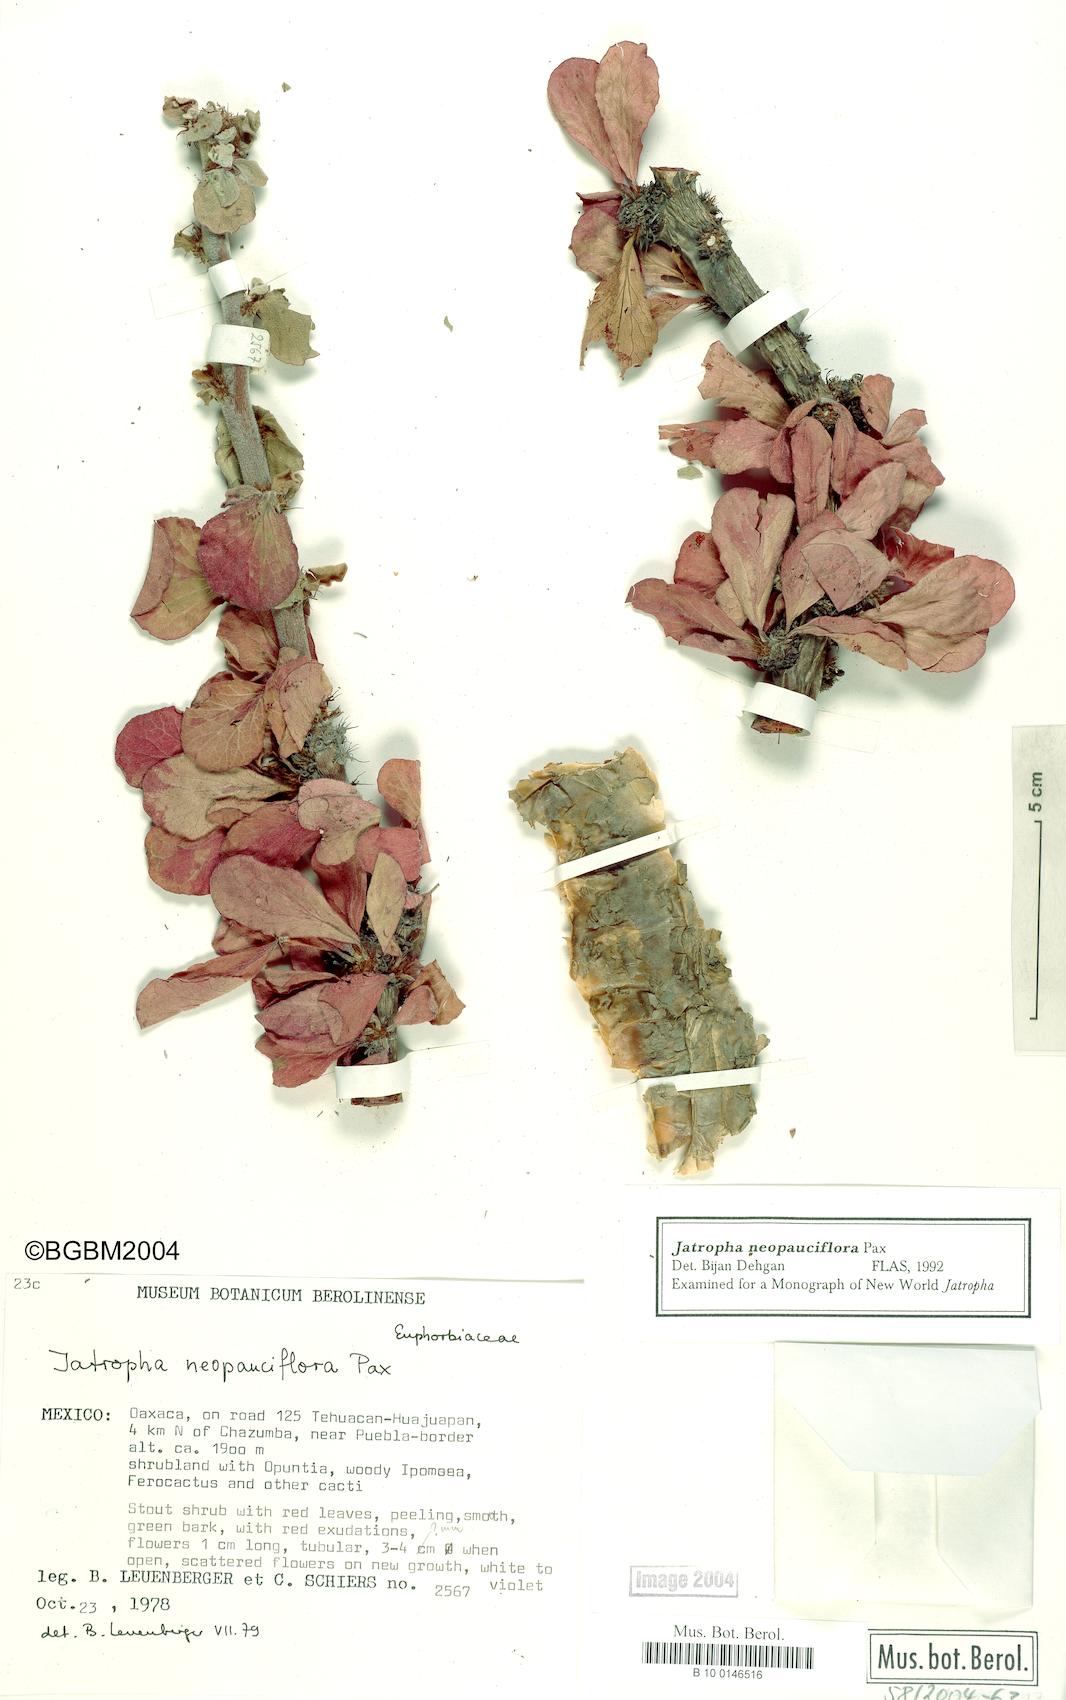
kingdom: Plantae
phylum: Tracheophyta
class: Magnoliopsida
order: Malpighiales
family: Euphorbiaceae
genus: Jatropha
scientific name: Jatropha neopauciflora
